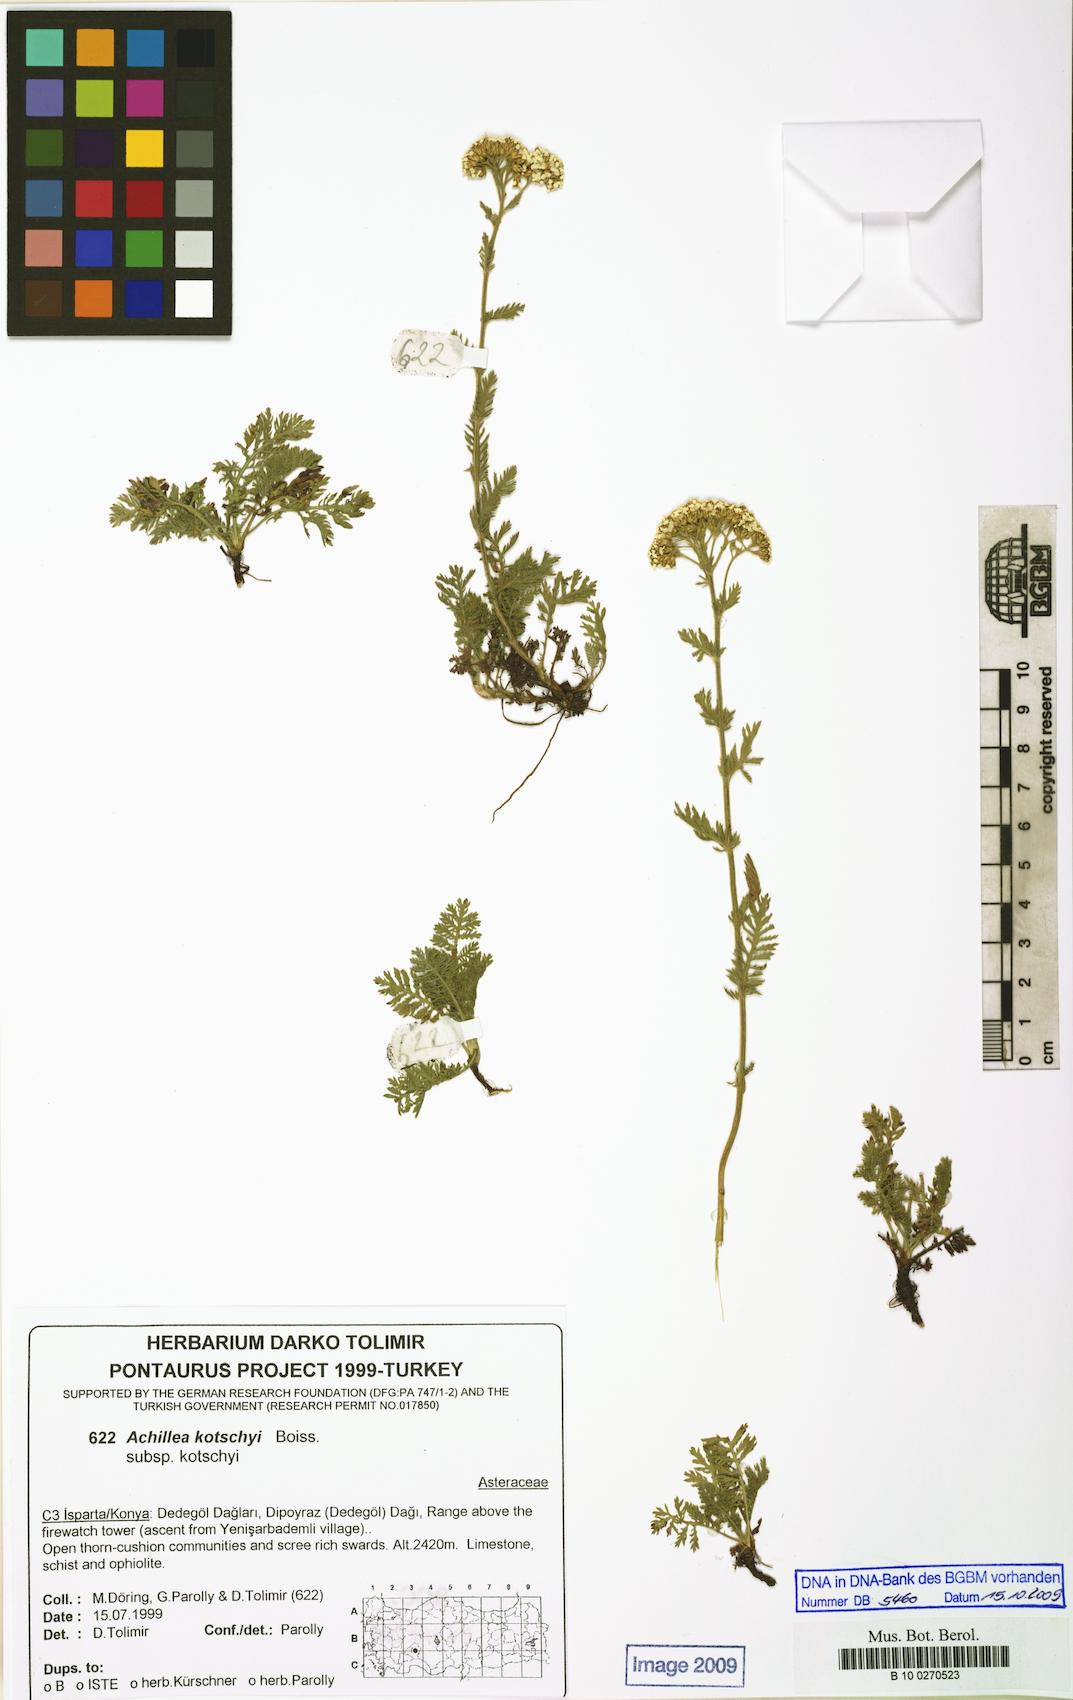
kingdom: Plantae
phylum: Tracheophyta
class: Magnoliopsida
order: Asterales
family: Asteraceae
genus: Achillea
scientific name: Achillea kotschyi
